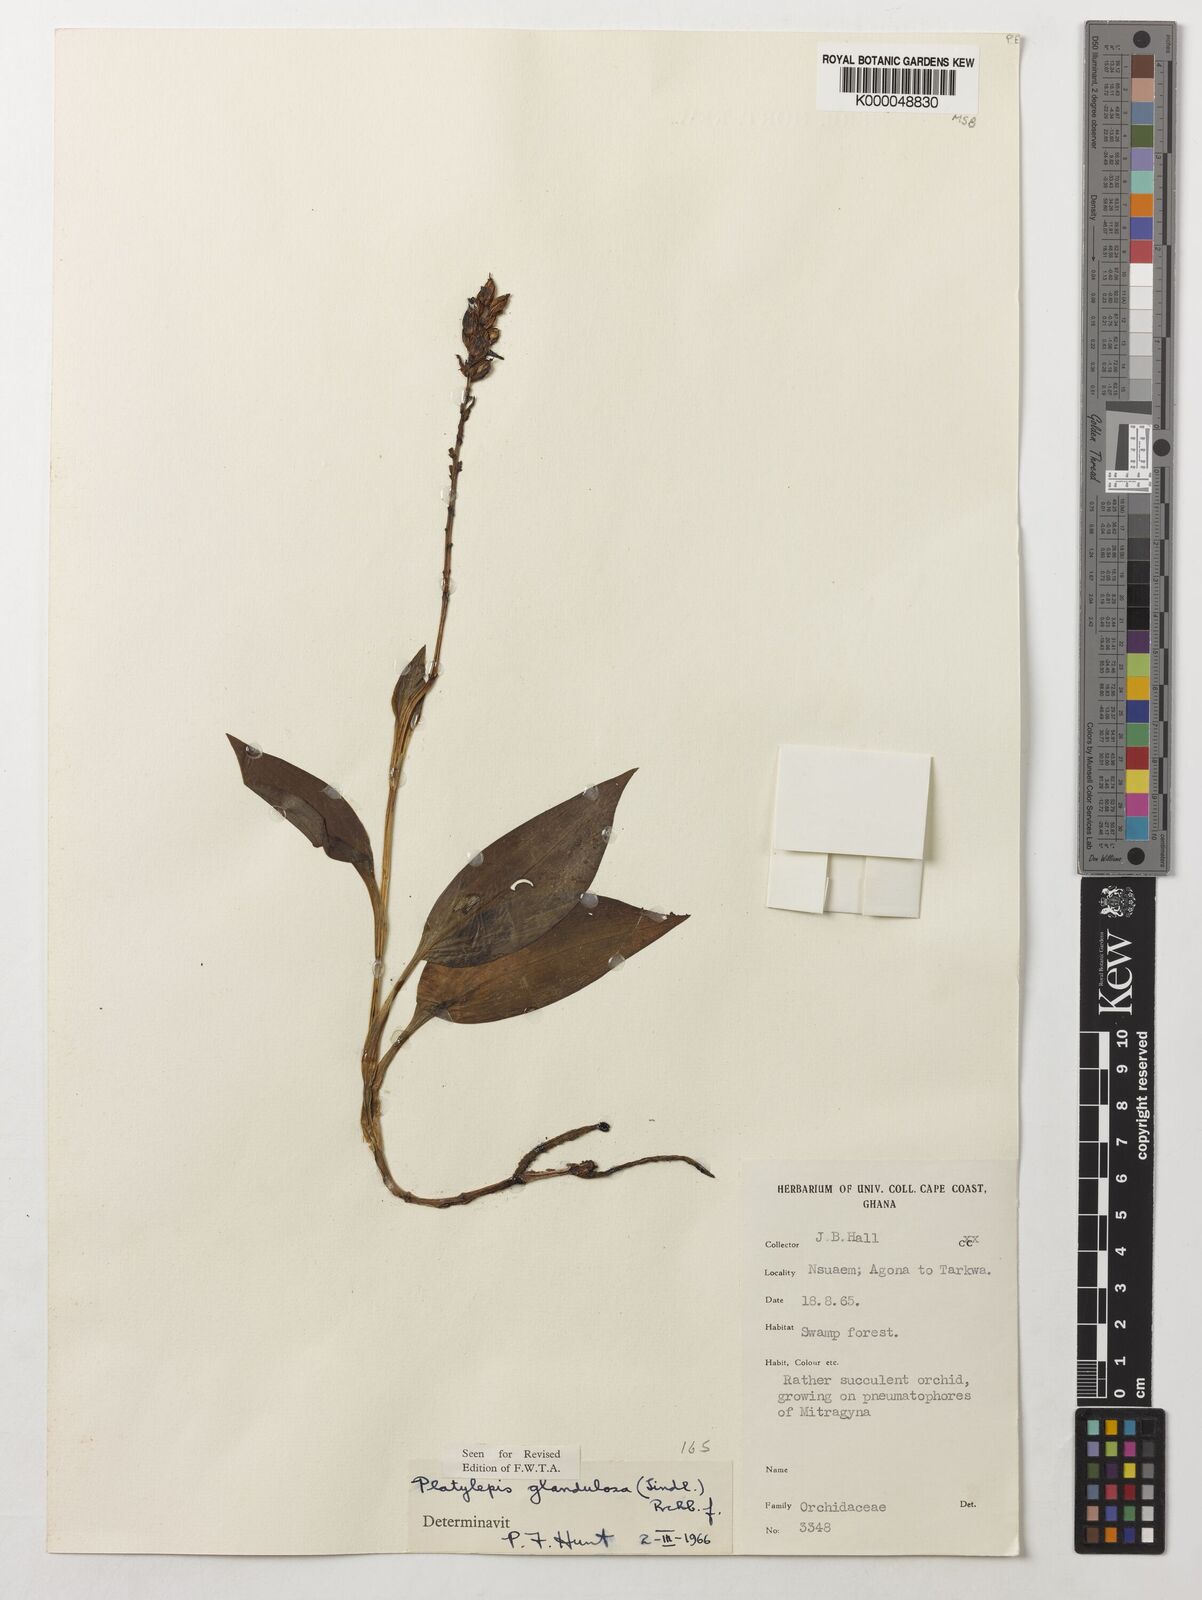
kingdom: Plantae
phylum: Tracheophyta
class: Liliopsida
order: Asparagales
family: Orchidaceae
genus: Platylepis
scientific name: Platylepis glandulosa
